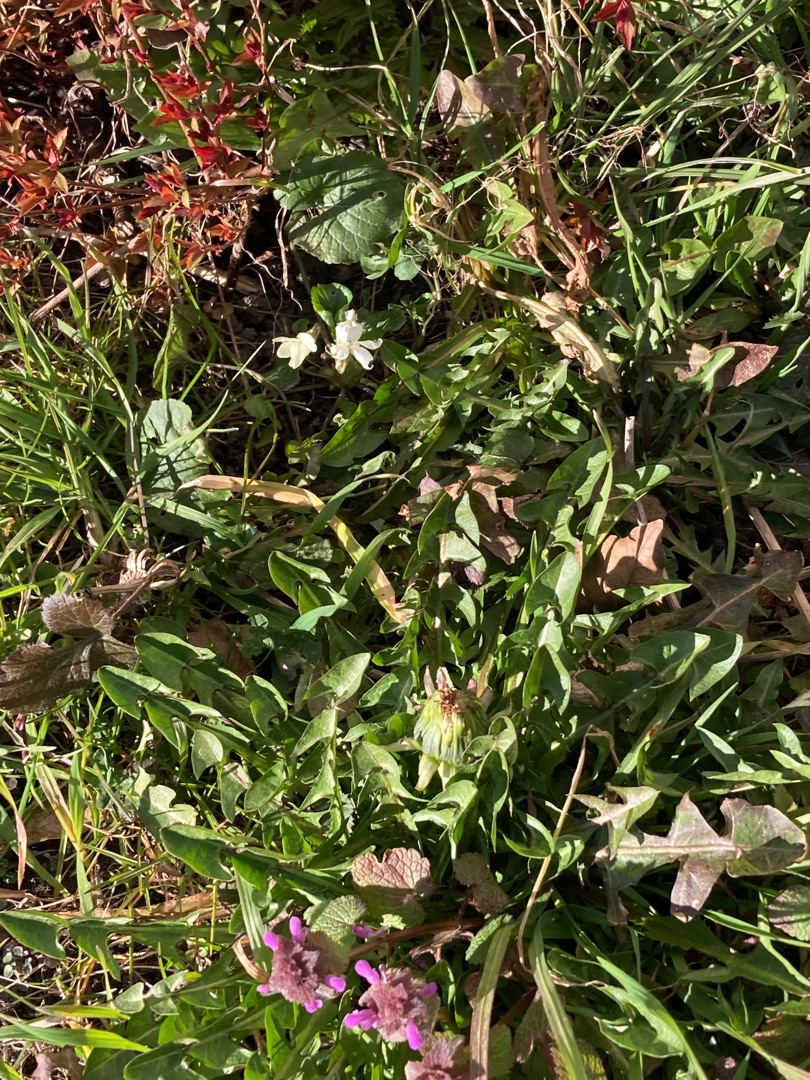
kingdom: Plantae
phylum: Tracheophyta
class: Magnoliopsida
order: Malpighiales
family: Violaceae
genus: Viola
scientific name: Viola odorata
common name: Marts-viol
